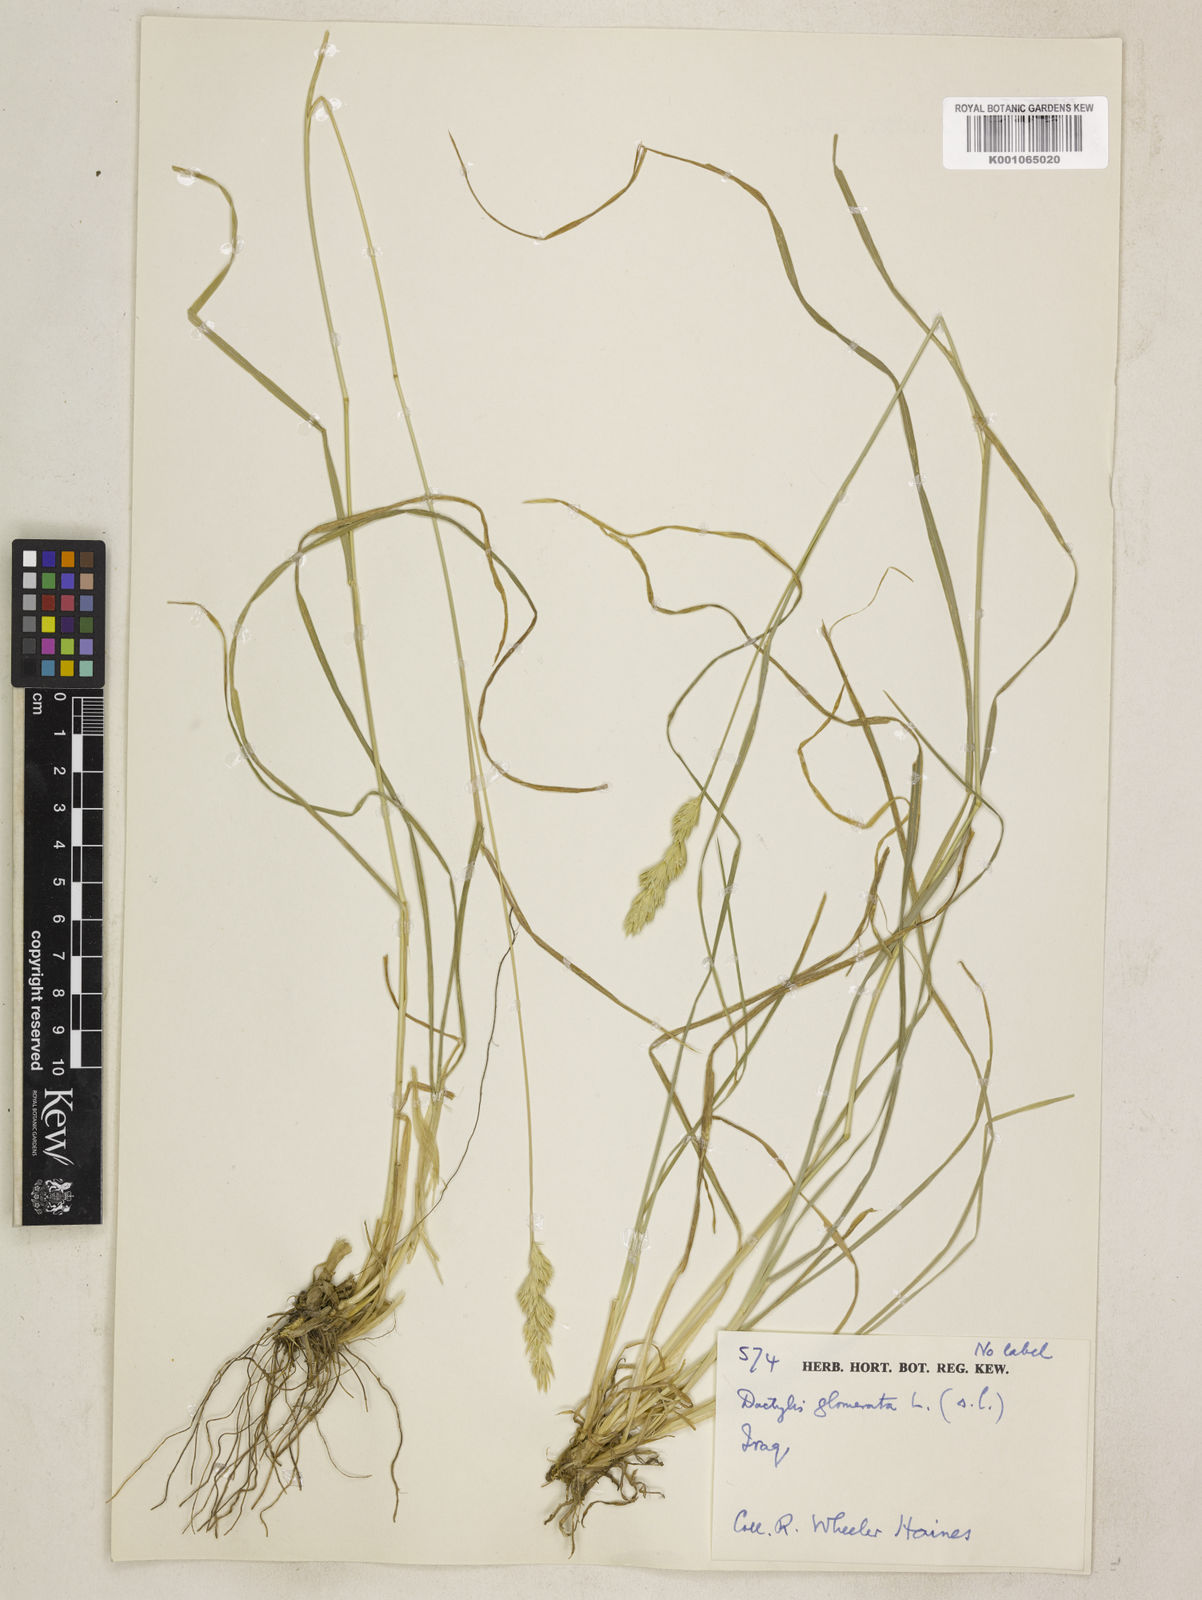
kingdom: Plantae
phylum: Tracheophyta
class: Liliopsida
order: Poales
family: Poaceae
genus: Dactylis
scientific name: Dactylis glomerata
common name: Orchardgrass
